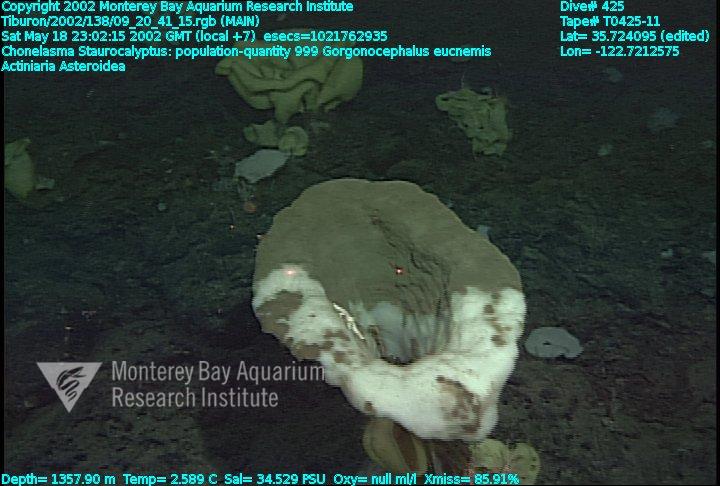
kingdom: Animalia
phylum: Porifera
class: Hexactinellida
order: Lyssacinosida
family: Rossellidae
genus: Staurocalyptus
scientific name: Staurocalyptus
